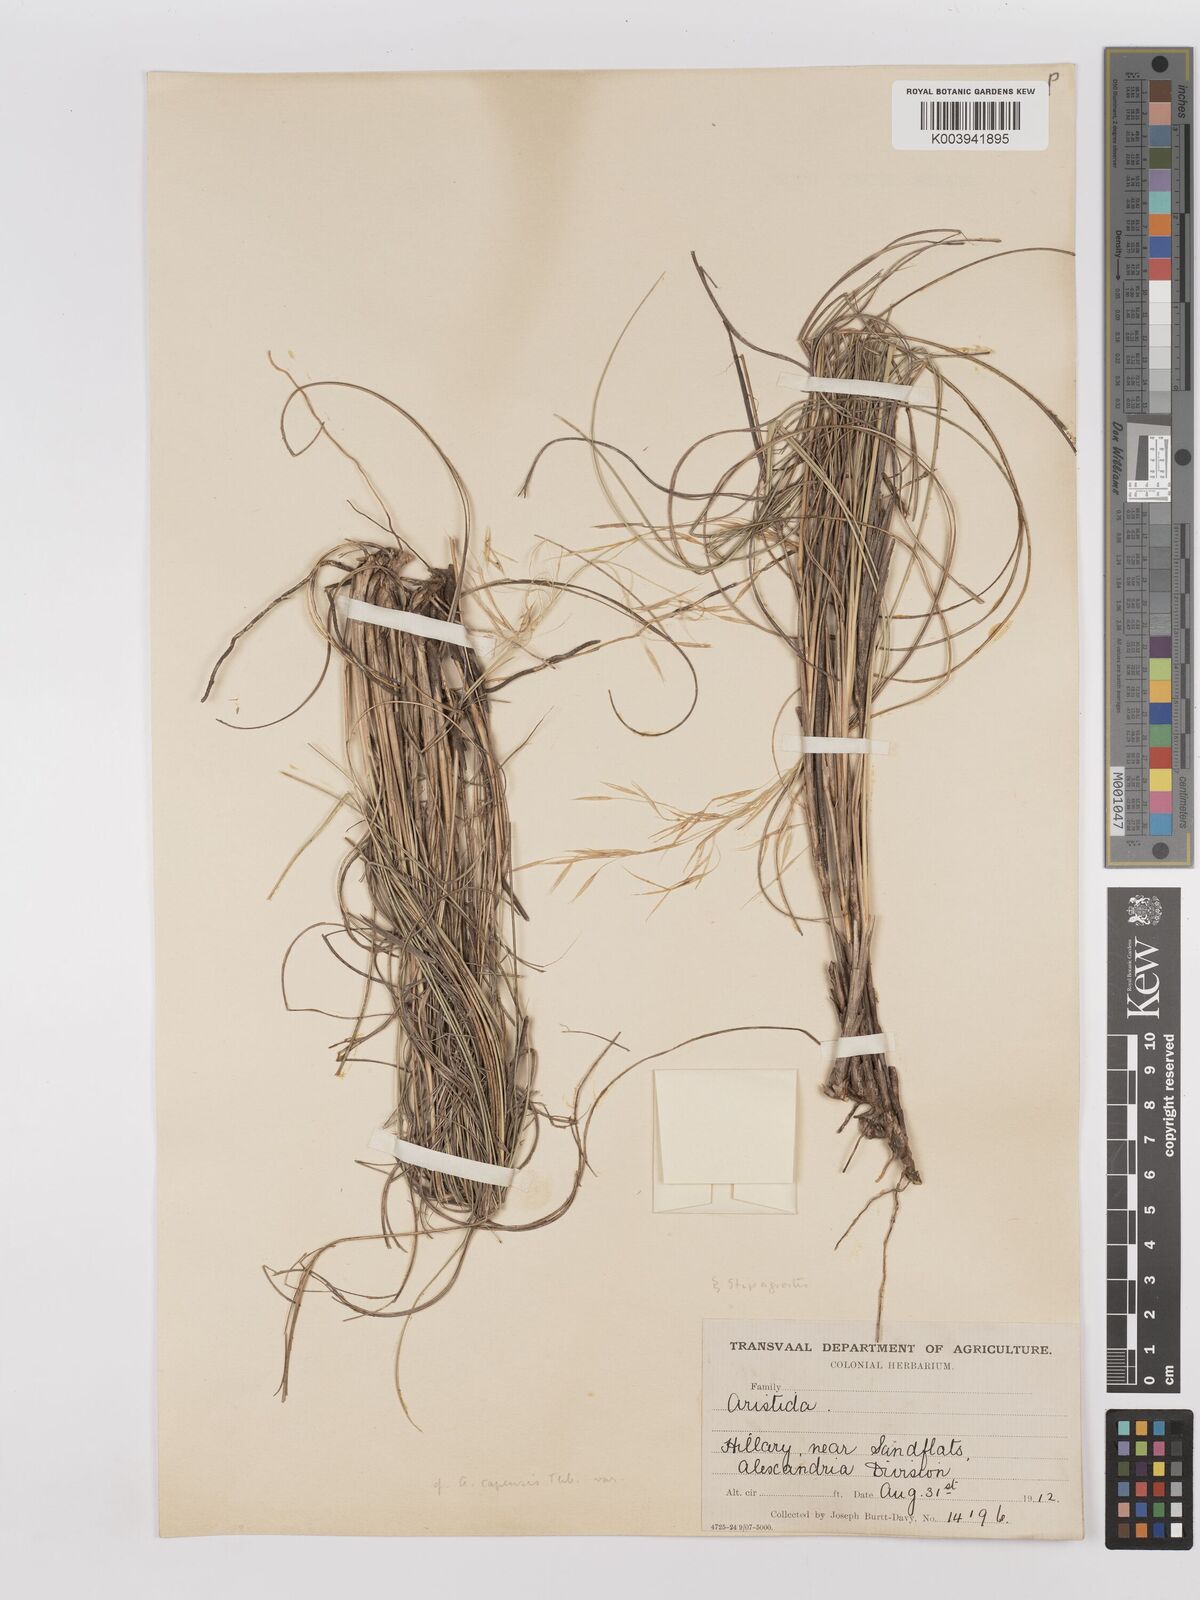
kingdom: Plantae
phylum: Tracheophyta
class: Liliopsida
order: Poales
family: Poaceae
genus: Stipagrostis
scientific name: Stipagrostis lutescens
